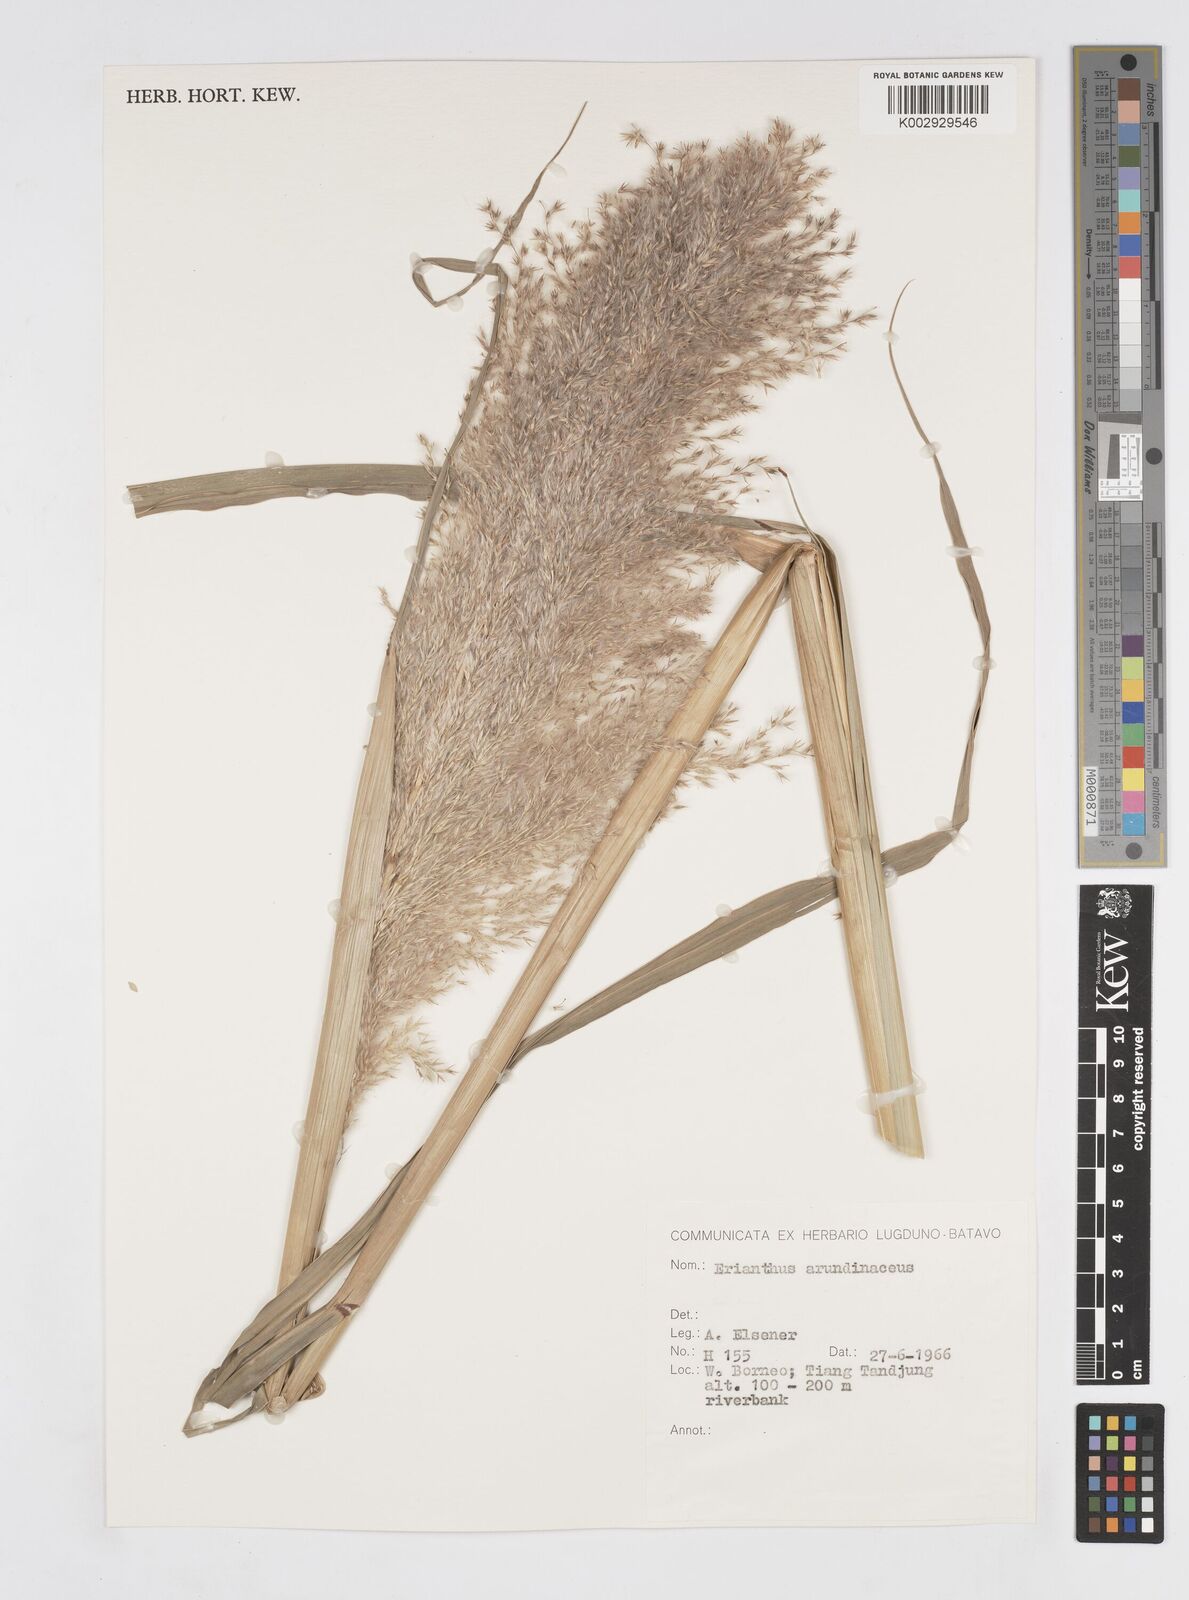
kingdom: Plantae
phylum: Tracheophyta
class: Liliopsida
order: Poales
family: Poaceae
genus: Tripidium
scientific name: Tripidium arundinaceum
